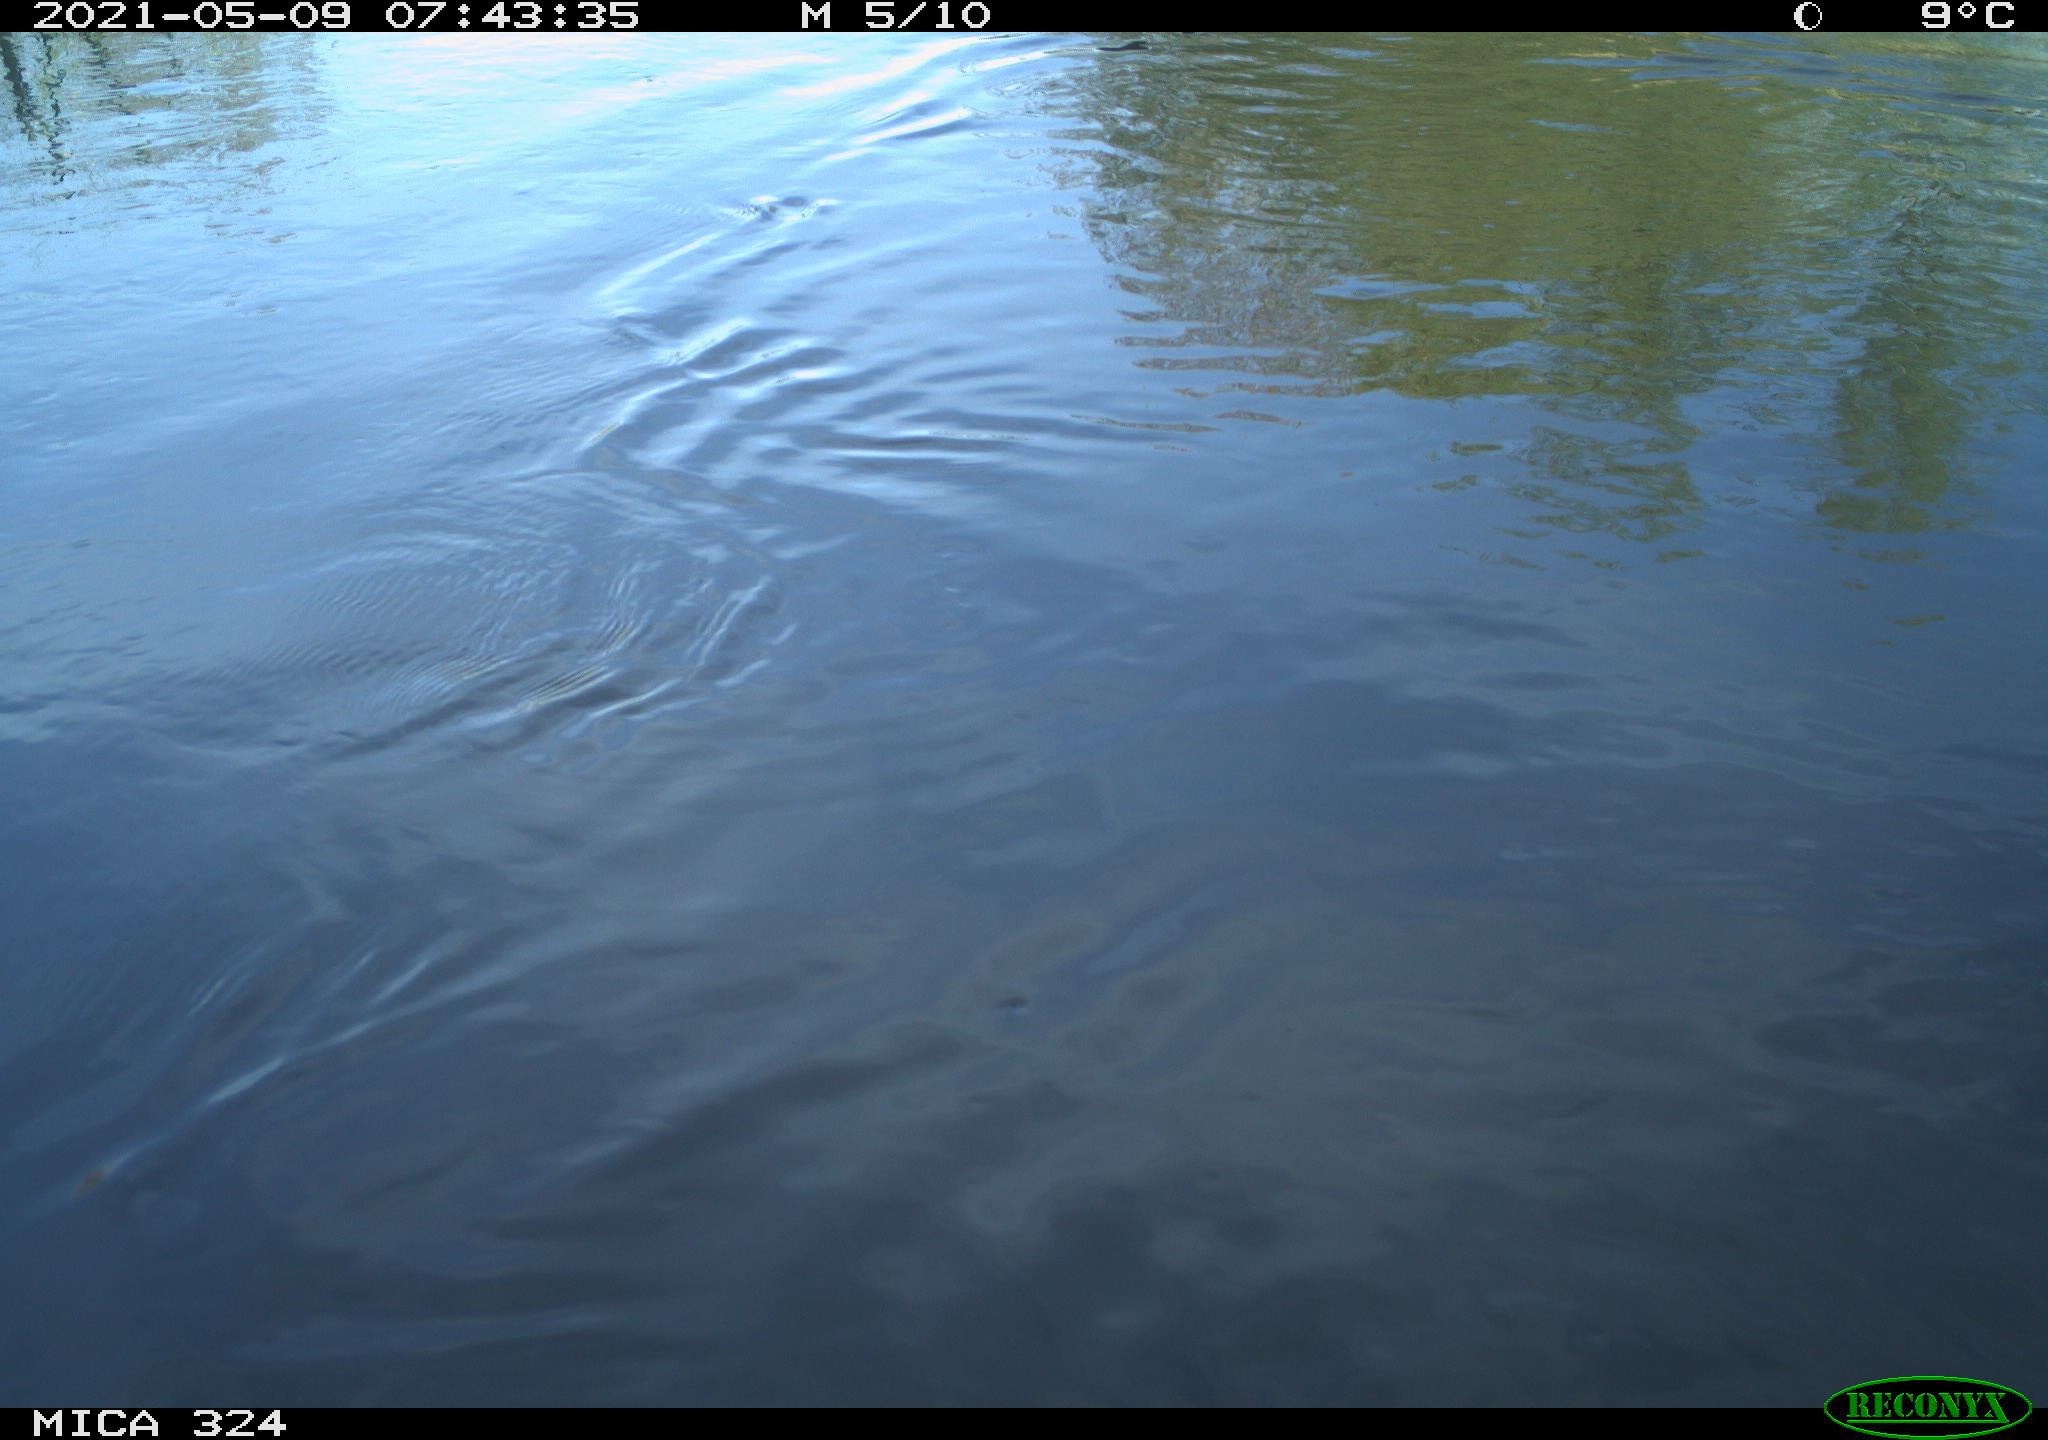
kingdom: Animalia
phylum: Chordata
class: Aves
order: Anseriformes
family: Anatidae
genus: Anas
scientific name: Anas platyrhynchos
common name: Mallard
